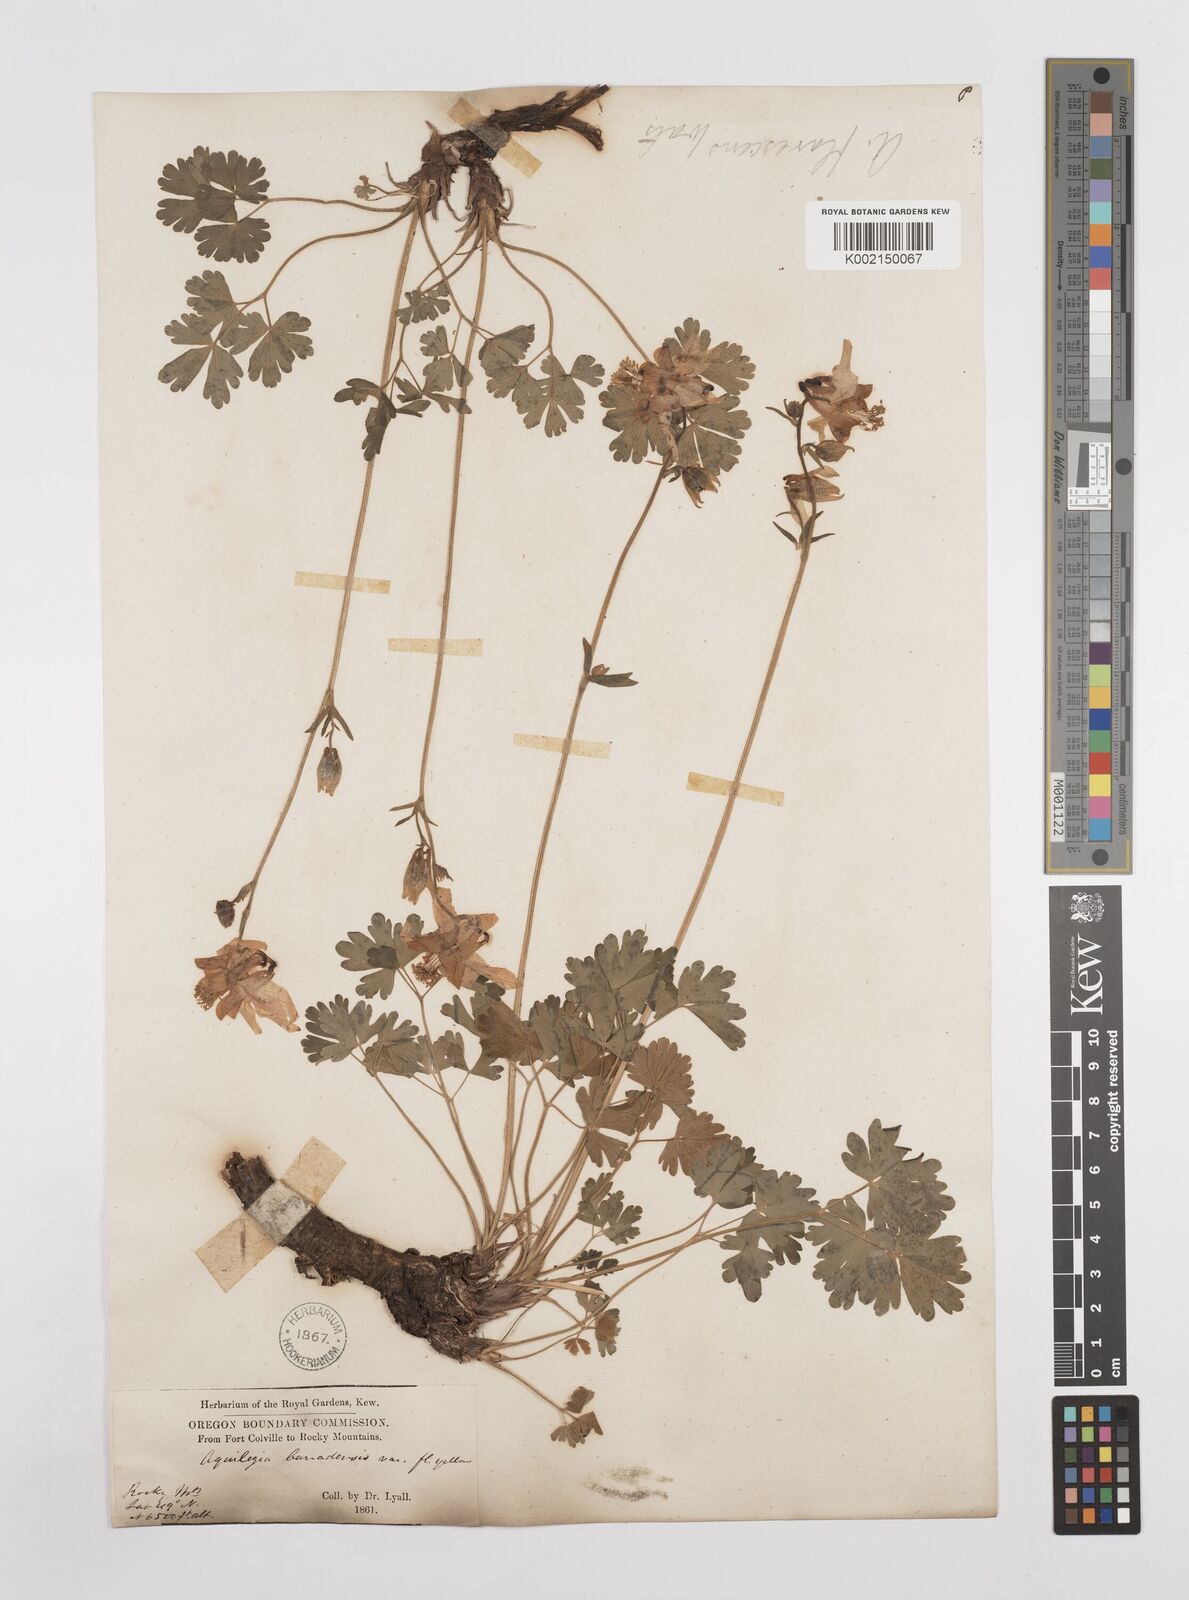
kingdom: Plantae
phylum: Tracheophyta
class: Magnoliopsida
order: Ranunculales
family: Ranunculaceae
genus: Aquilegia
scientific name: Aquilegia flavescens
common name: Yellow columbine
